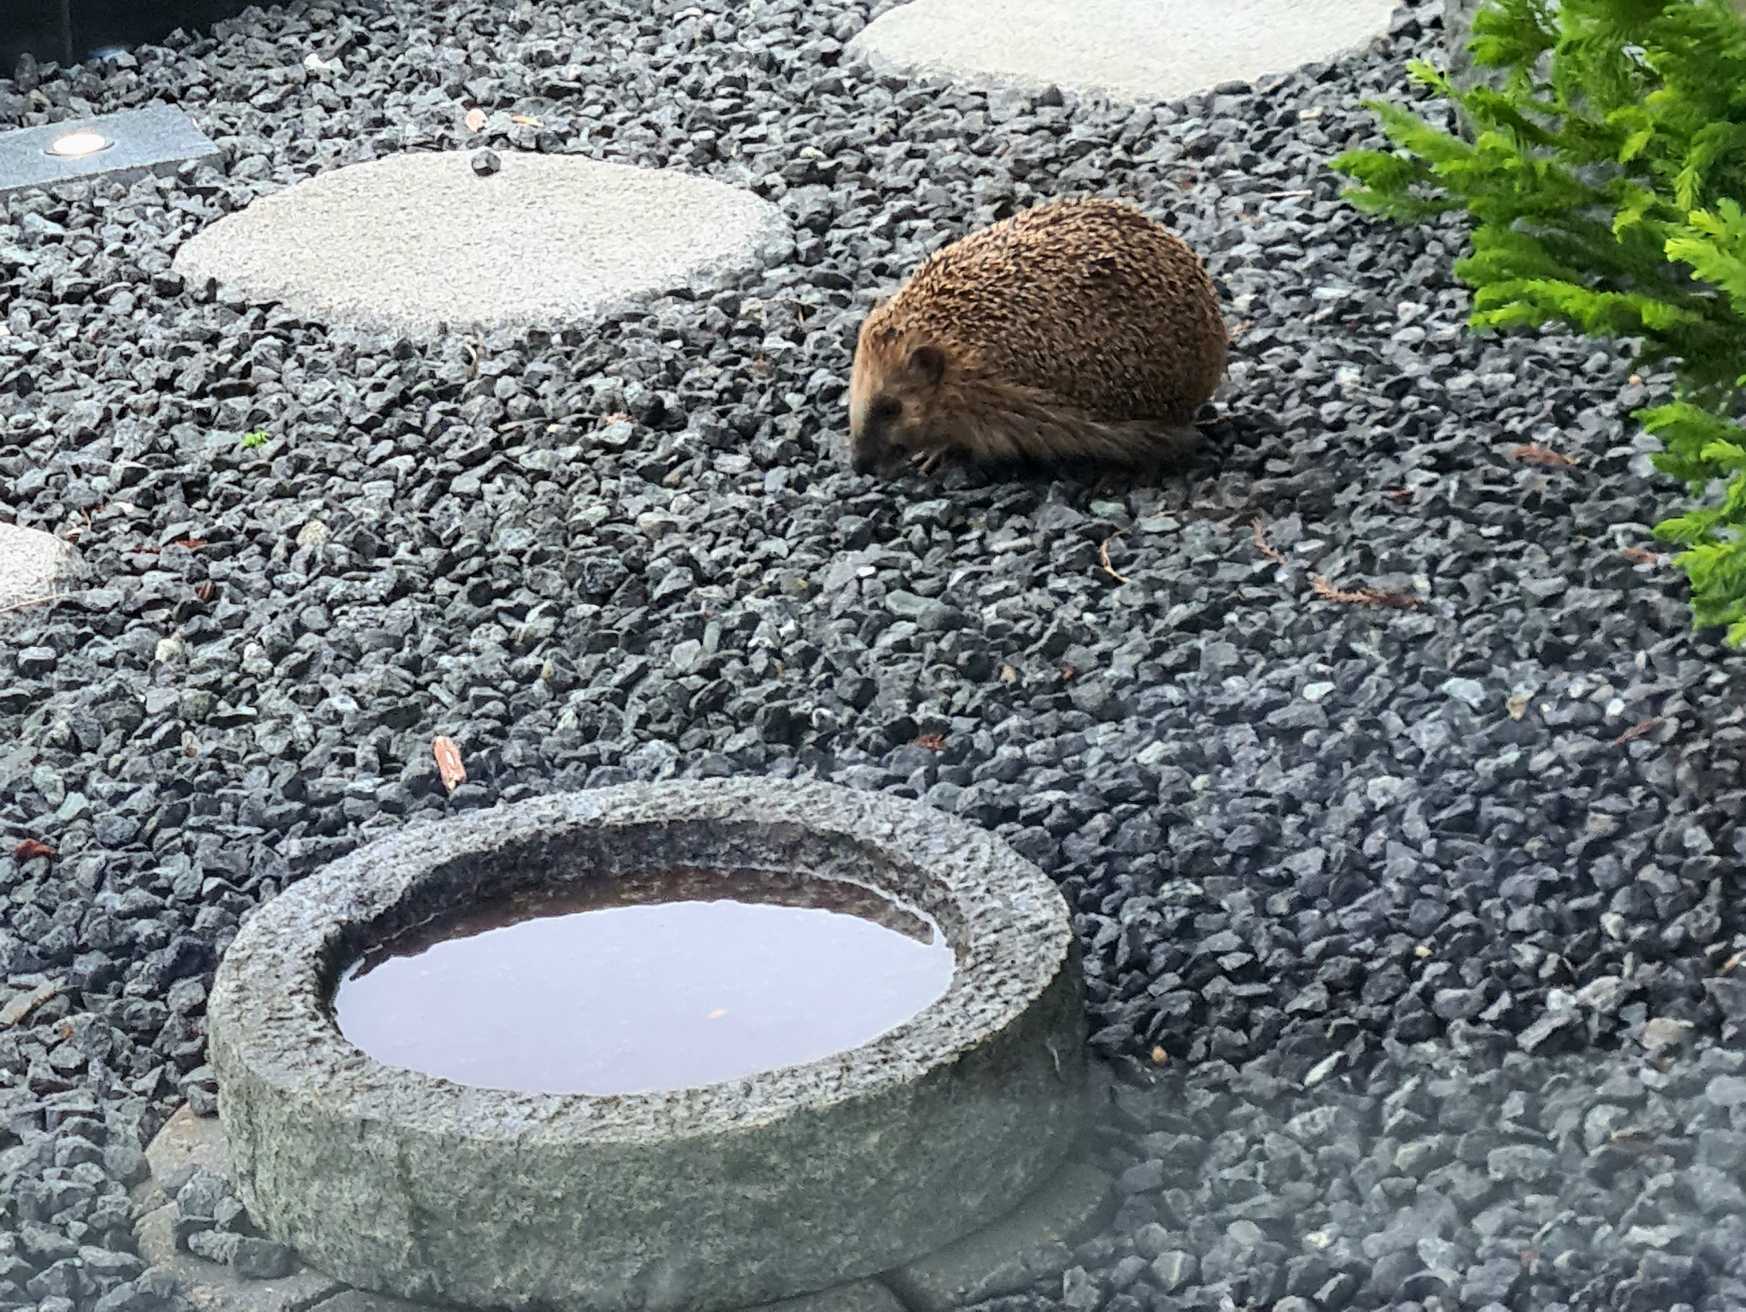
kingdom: Animalia
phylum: Chordata
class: Mammalia
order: Erinaceomorpha
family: Erinaceidae
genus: Erinaceus
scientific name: Erinaceus europaeus
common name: Pindsvin
